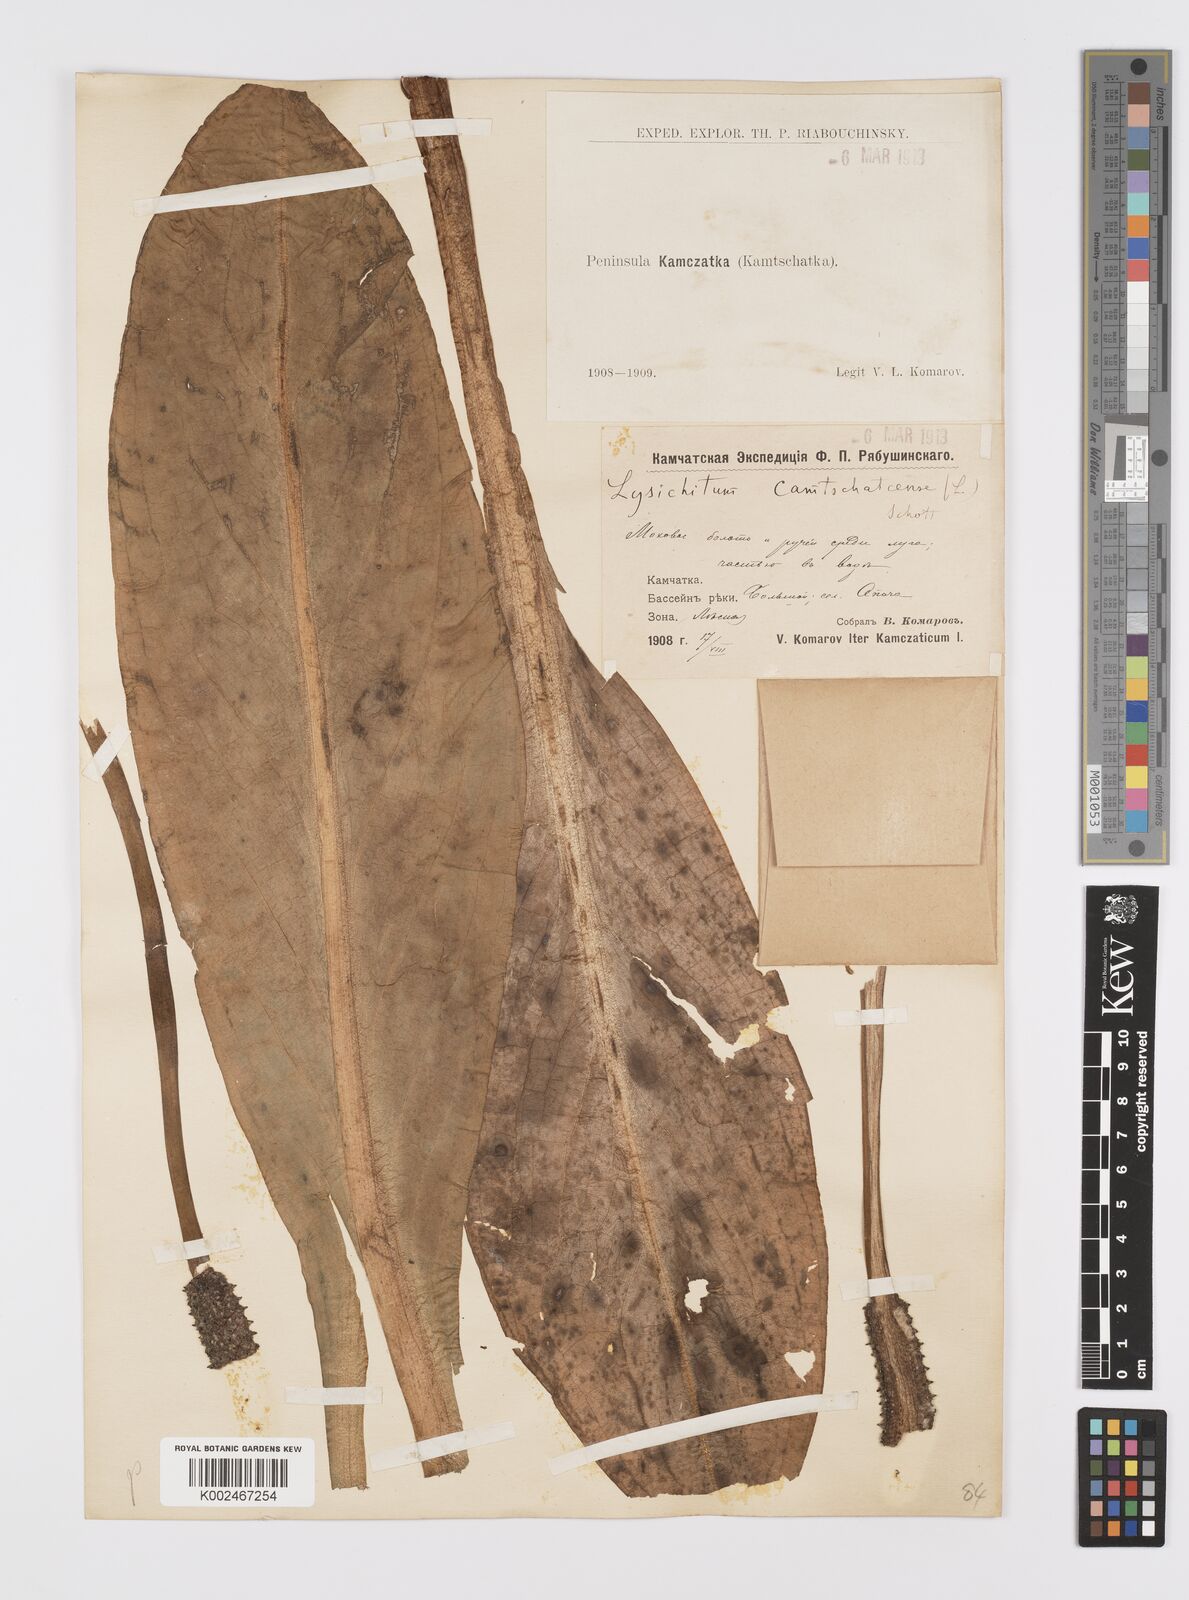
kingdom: Plantae
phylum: Tracheophyta
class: Liliopsida
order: Alismatales
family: Araceae
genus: Lysichiton
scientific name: Lysichiton camtschatcensis
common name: Asian skunk-cabbage
